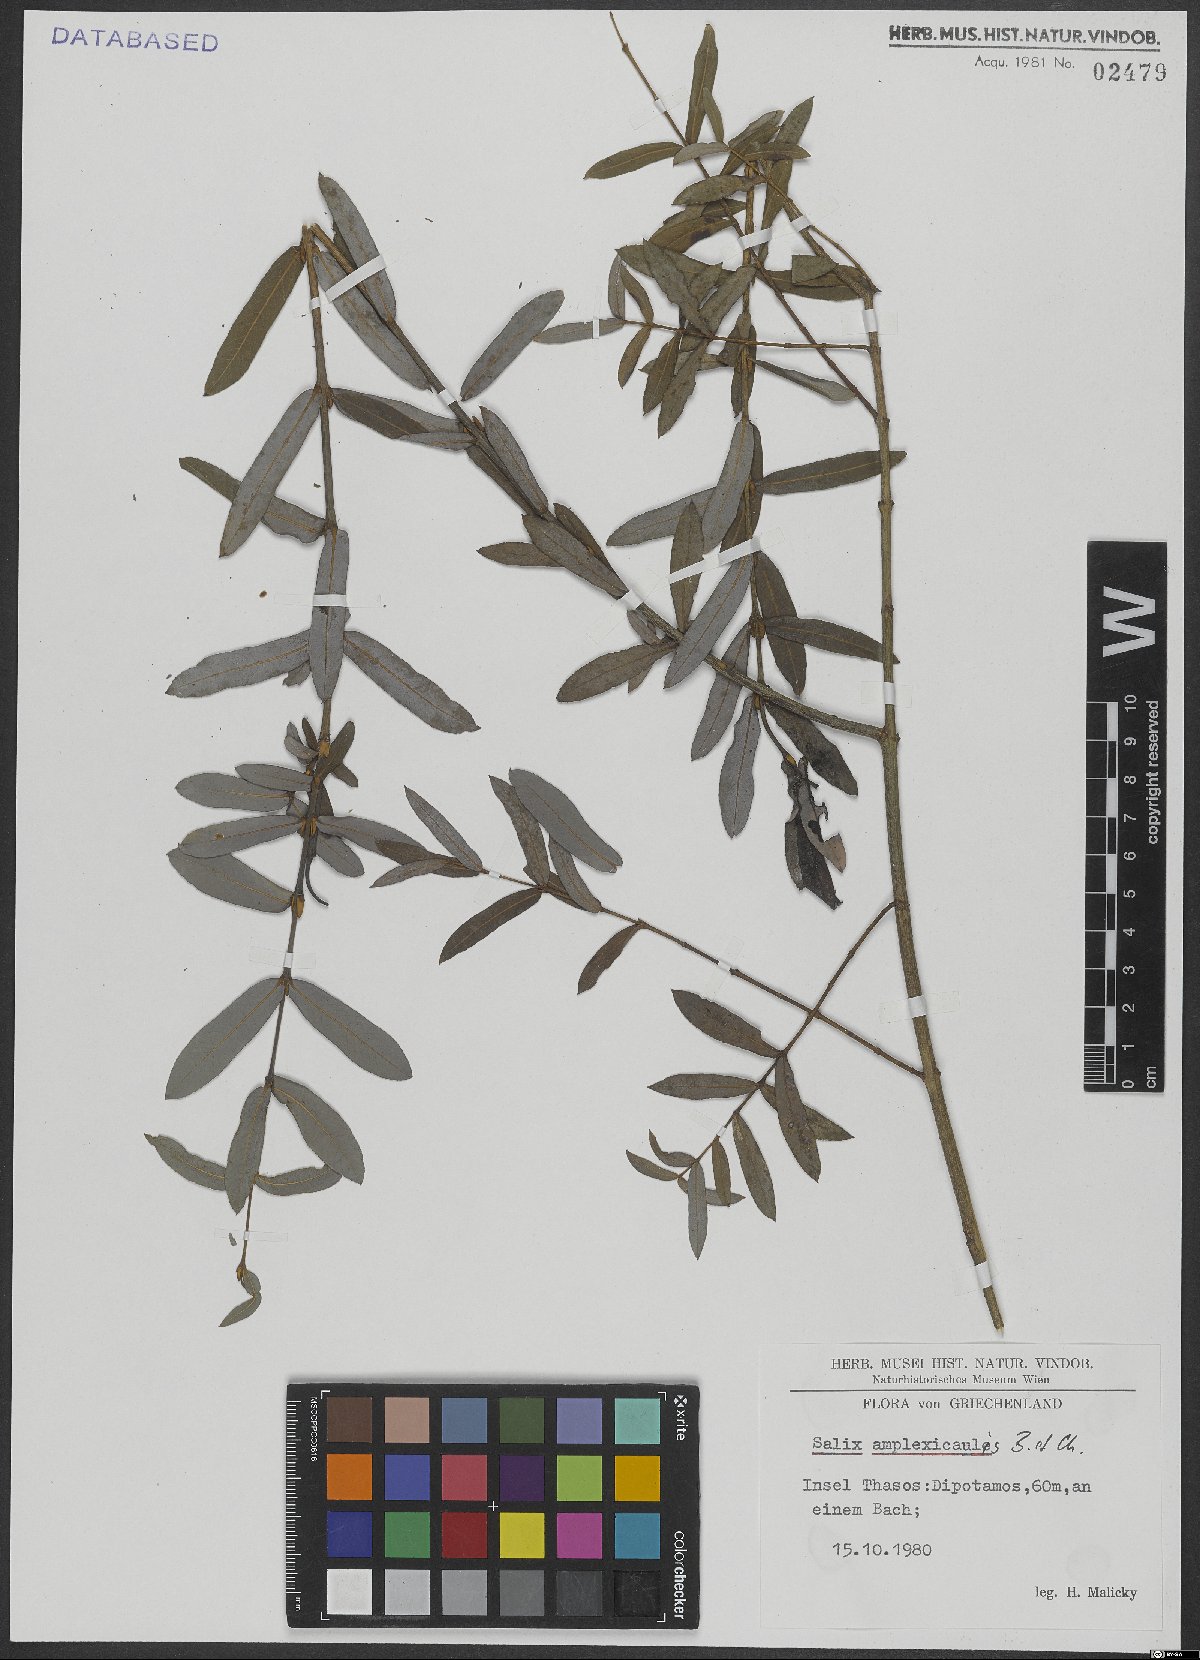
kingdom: Plantae
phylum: Tracheophyta
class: Magnoliopsida
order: Malpighiales
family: Salicaceae
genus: Salix
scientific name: Salix amplexicaulis
